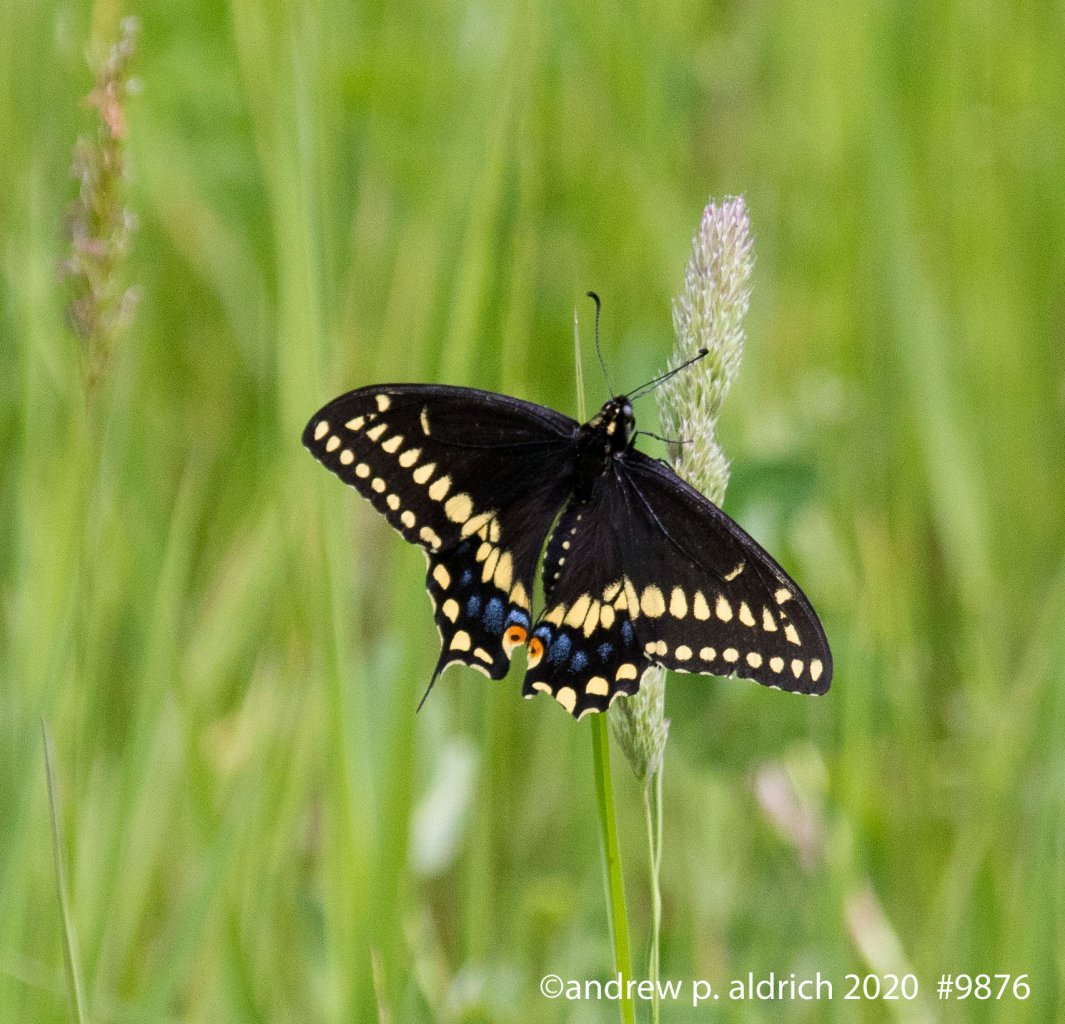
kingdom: Animalia
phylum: Arthropoda
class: Insecta
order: Lepidoptera
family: Papilionidae
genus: Papilio
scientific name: Papilio polyxenes
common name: Black Swallowtail
